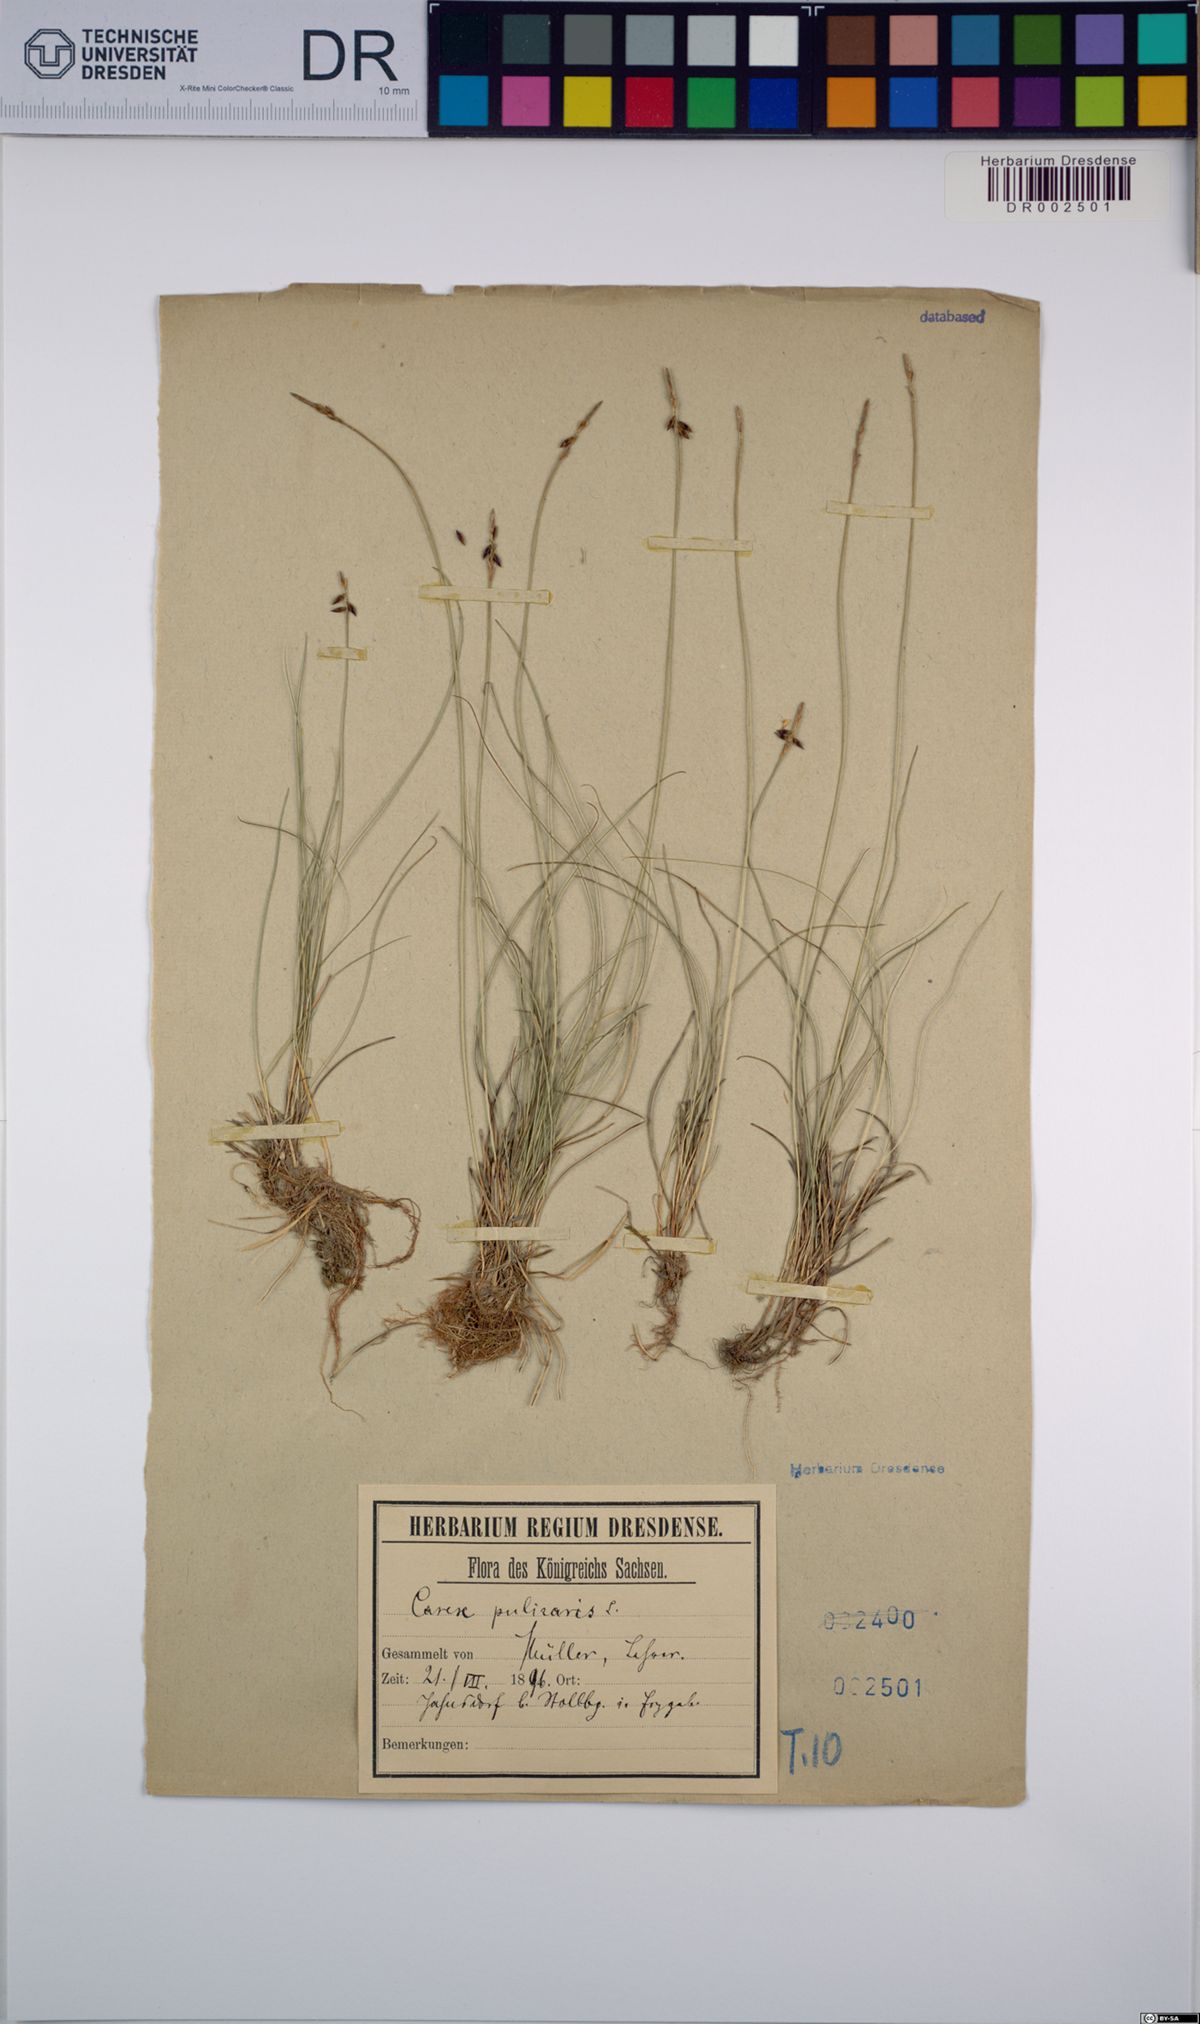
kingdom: Plantae
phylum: Tracheophyta
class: Liliopsida
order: Poales
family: Cyperaceae
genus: Carex
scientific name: Carex pulicaris
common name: Flea sedge
